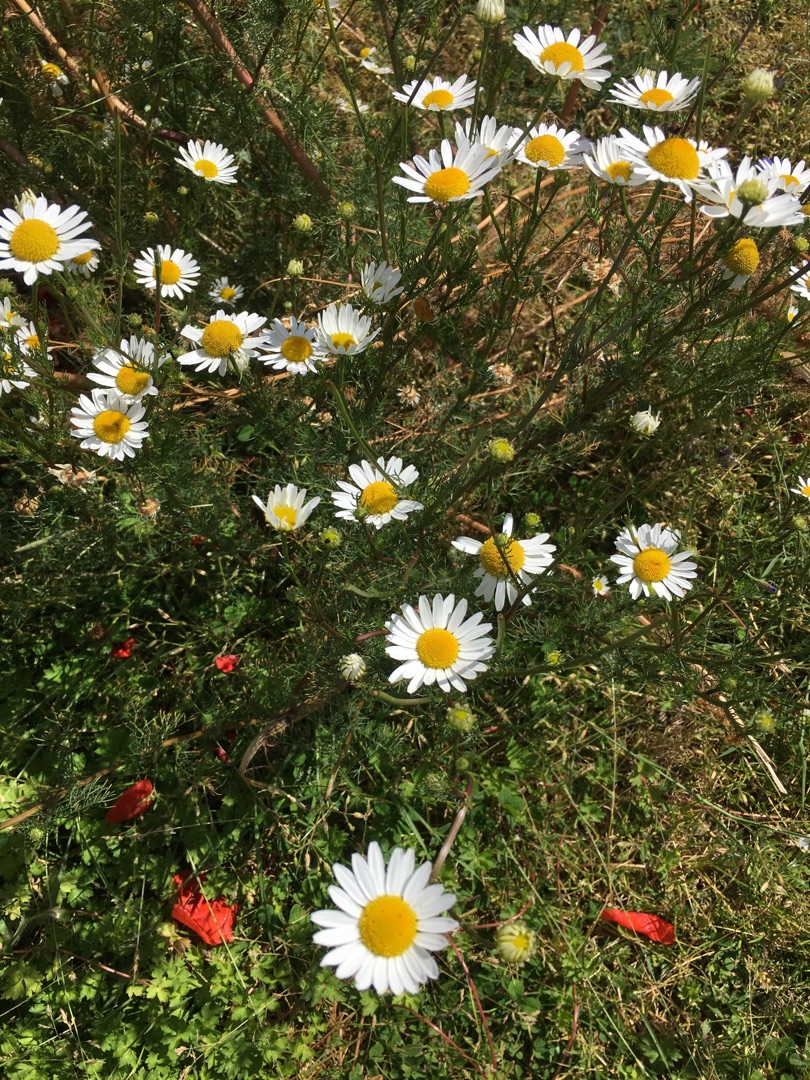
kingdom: Plantae
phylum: Tracheophyta
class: Magnoliopsida
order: Asterales
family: Asteraceae
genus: Tripleurospermum
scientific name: Tripleurospermum inodorum
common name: Lugtløs kamille
